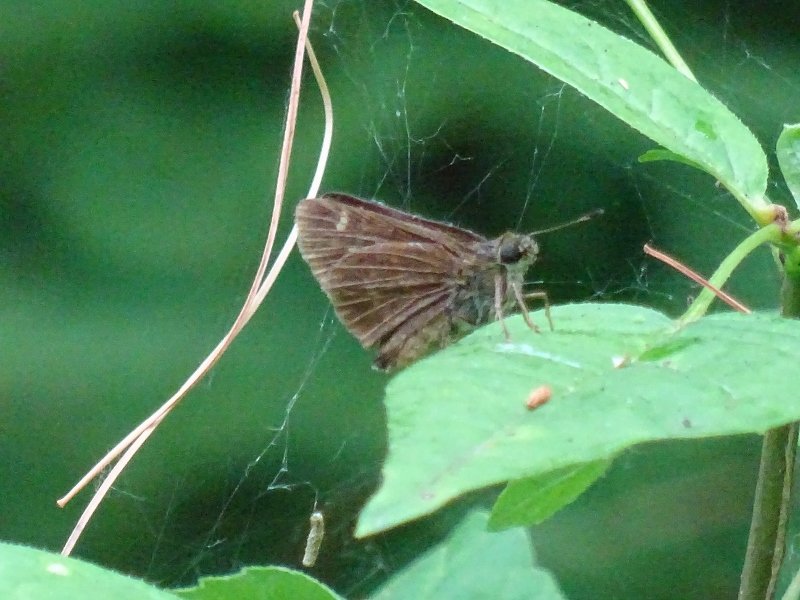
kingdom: Animalia
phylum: Arthropoda
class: Insecta
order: Lepidoptera
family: Hesperiidae
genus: Polites
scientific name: Polites egeremet
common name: Northern Broken-Dash
